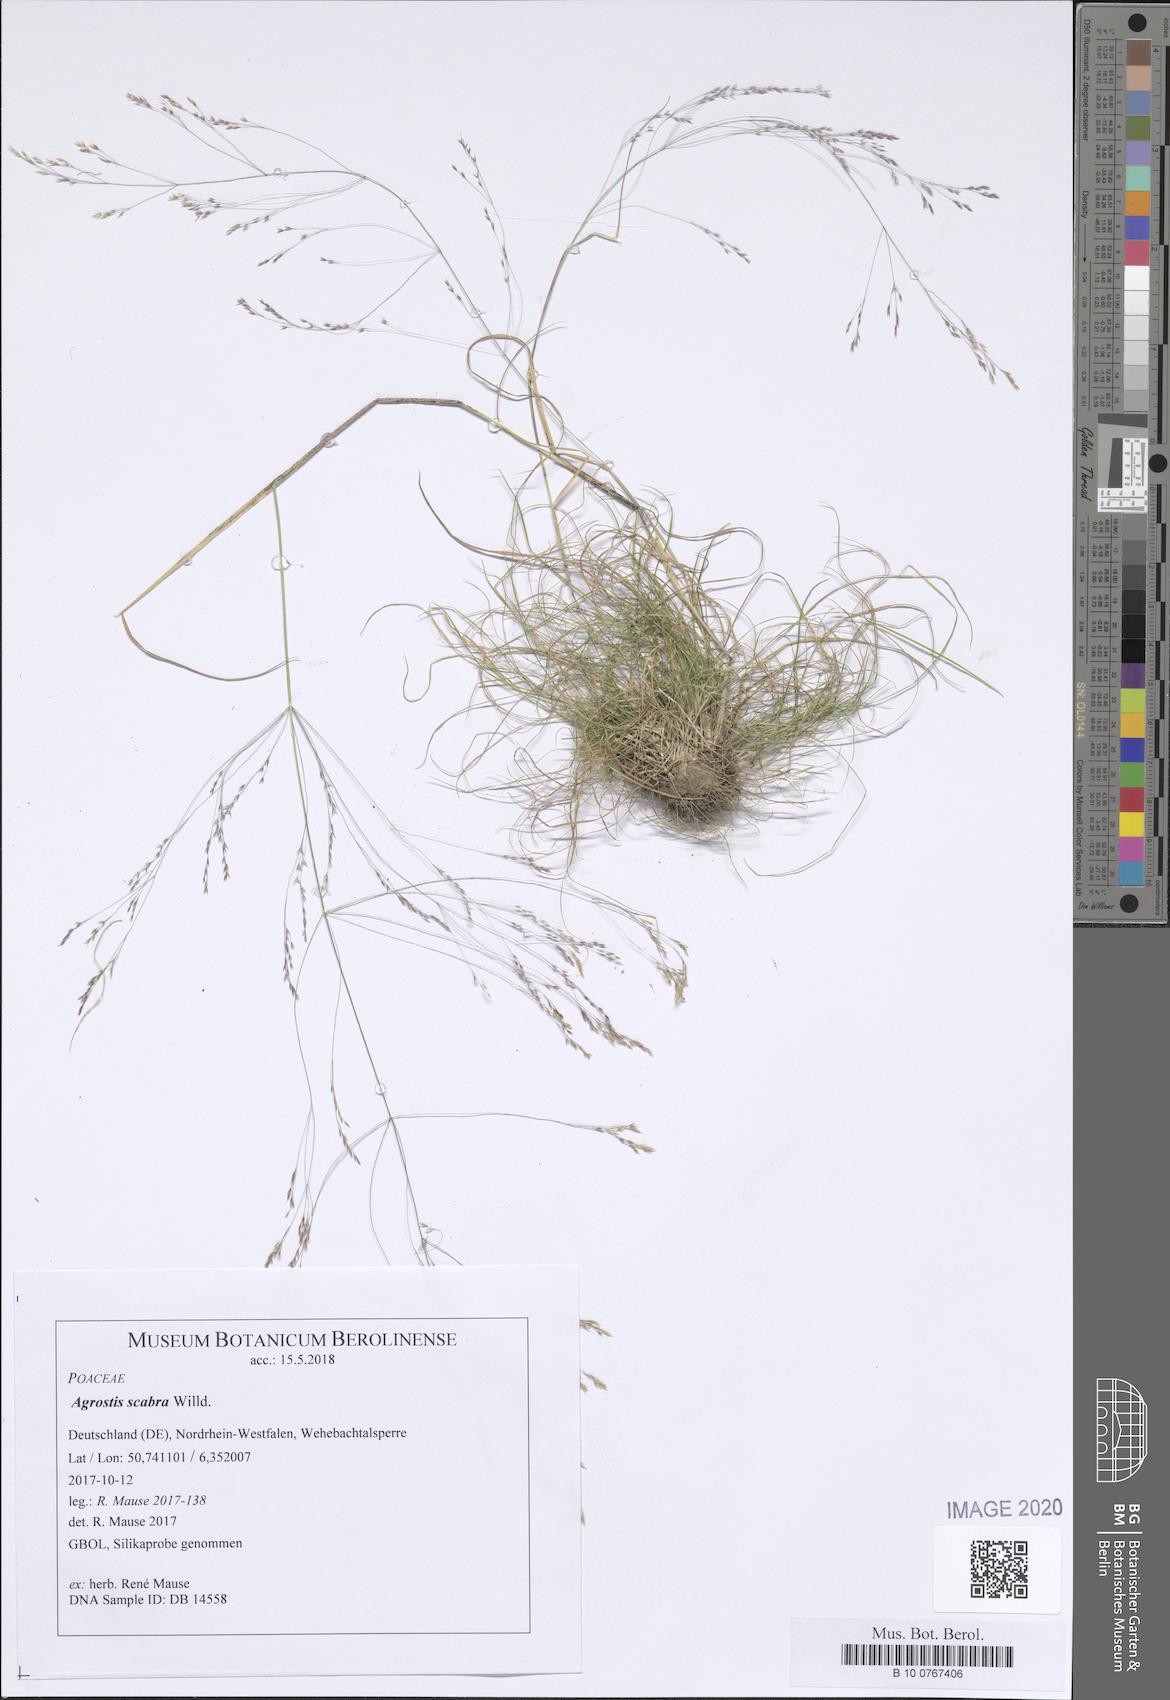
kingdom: Plantae
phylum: Tracheophyta
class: Polypodiopsida
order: Polypodiales
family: Cystopteridaceae
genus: Cystopteris
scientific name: Cystopteris alpina
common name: Alpine bladder-fern
